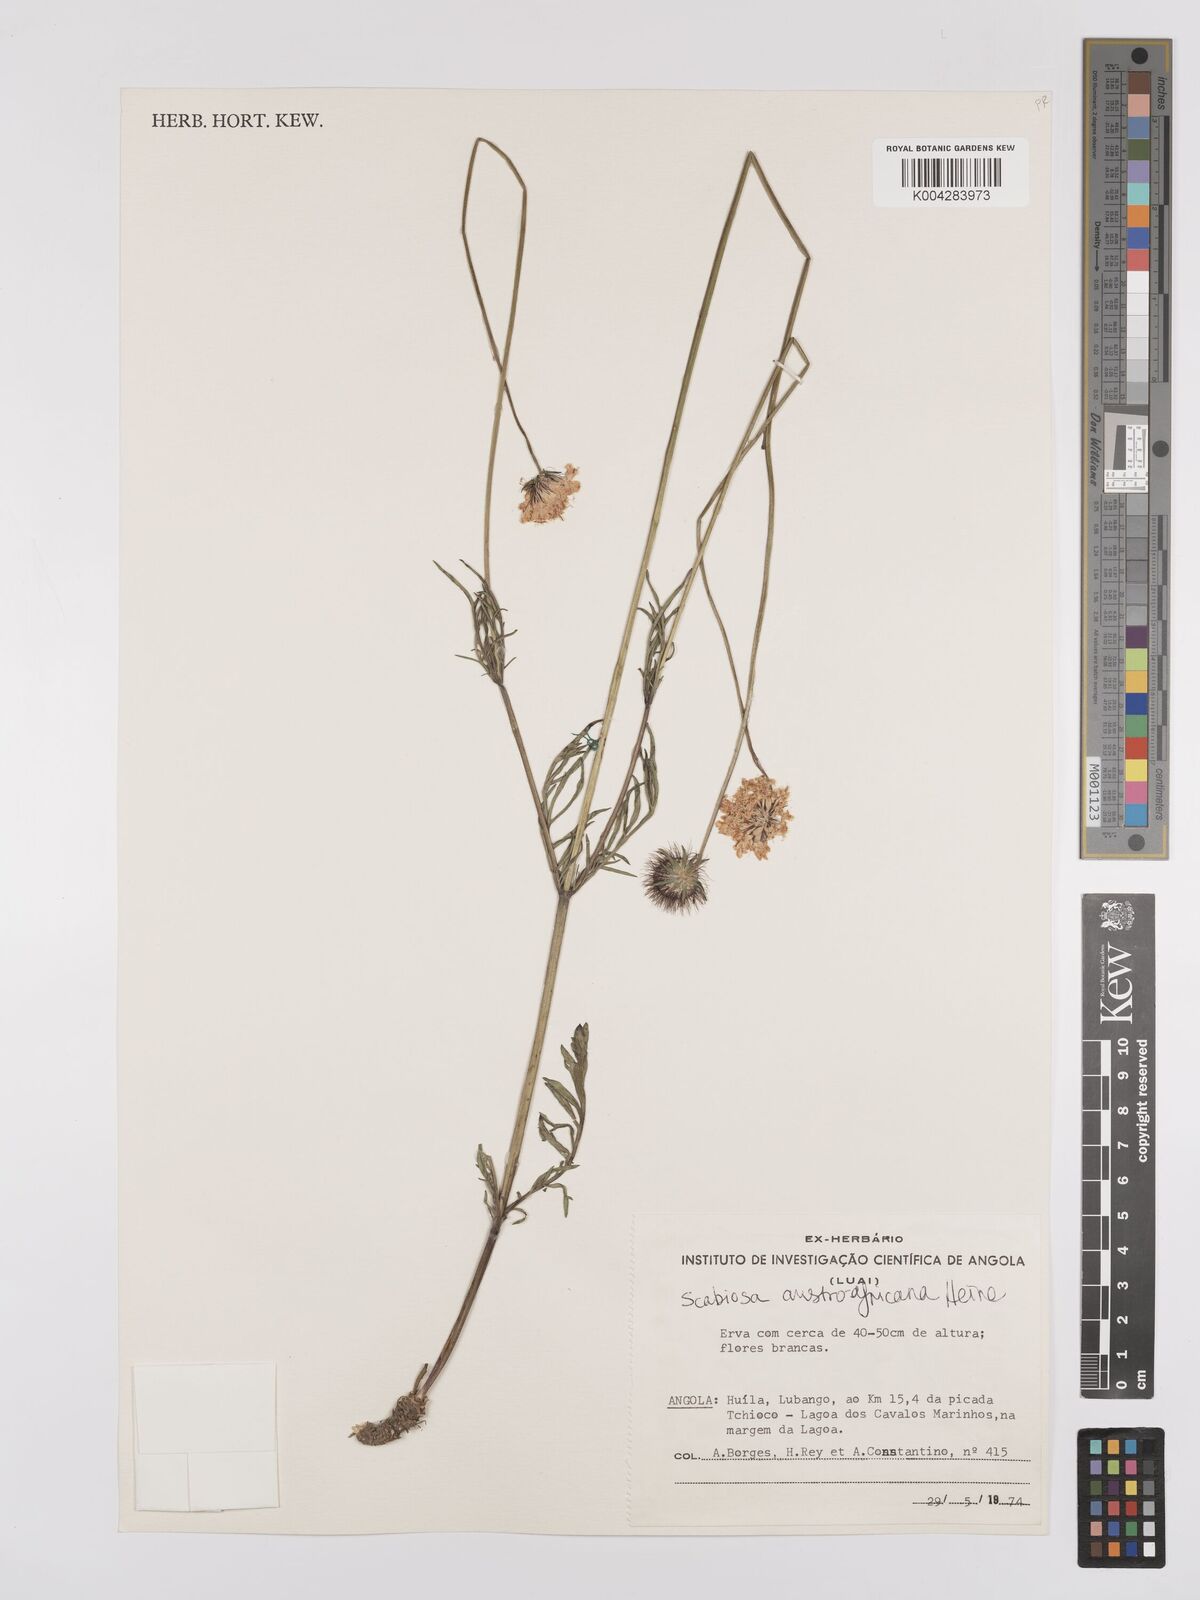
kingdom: Plantae
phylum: Tracheophyta
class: Magnoliopsida
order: Dipsacales
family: Caprifoliaceae
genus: Scabiosa
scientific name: Scabiosa austroafricana
